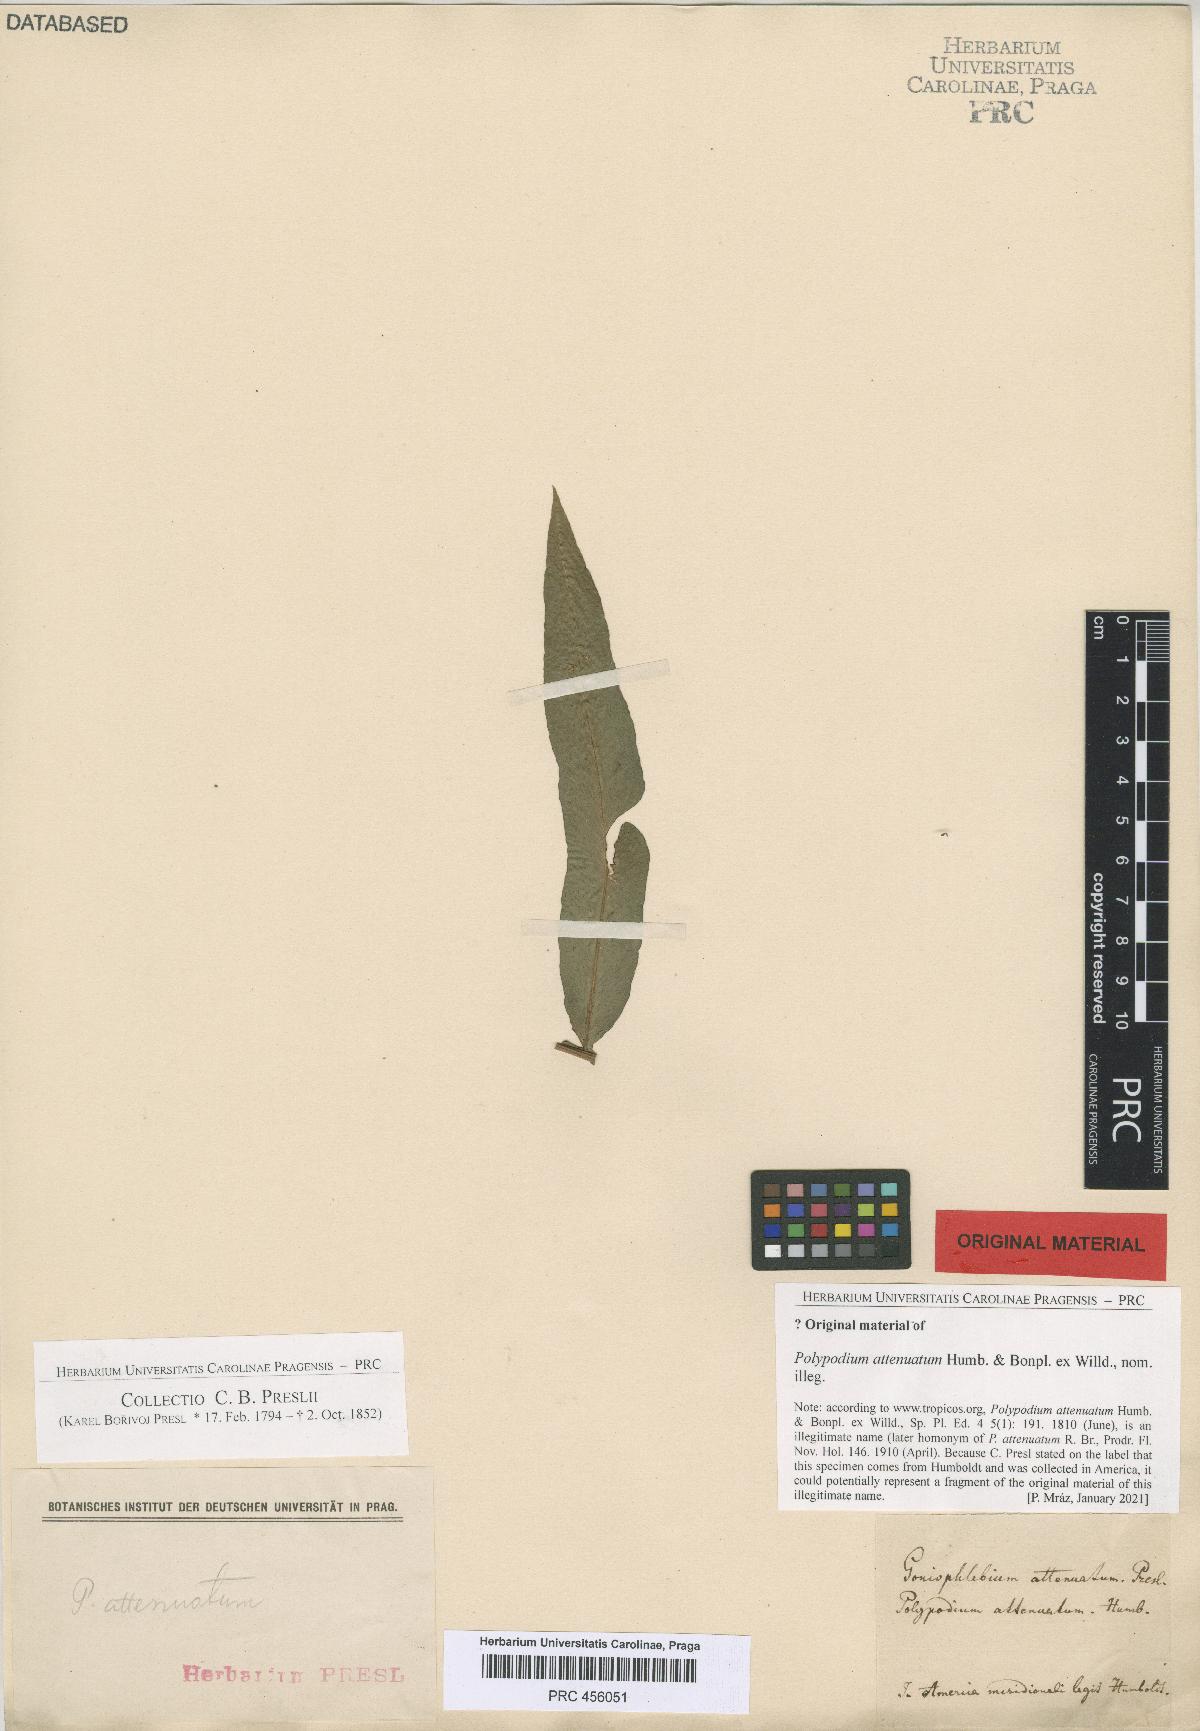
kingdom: Plantae
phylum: Tracheophyta
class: Polypodiopsida
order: Polypodiales
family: Polypodiaceae
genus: Serpocaulon
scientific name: Serpocaulon attenuatum
